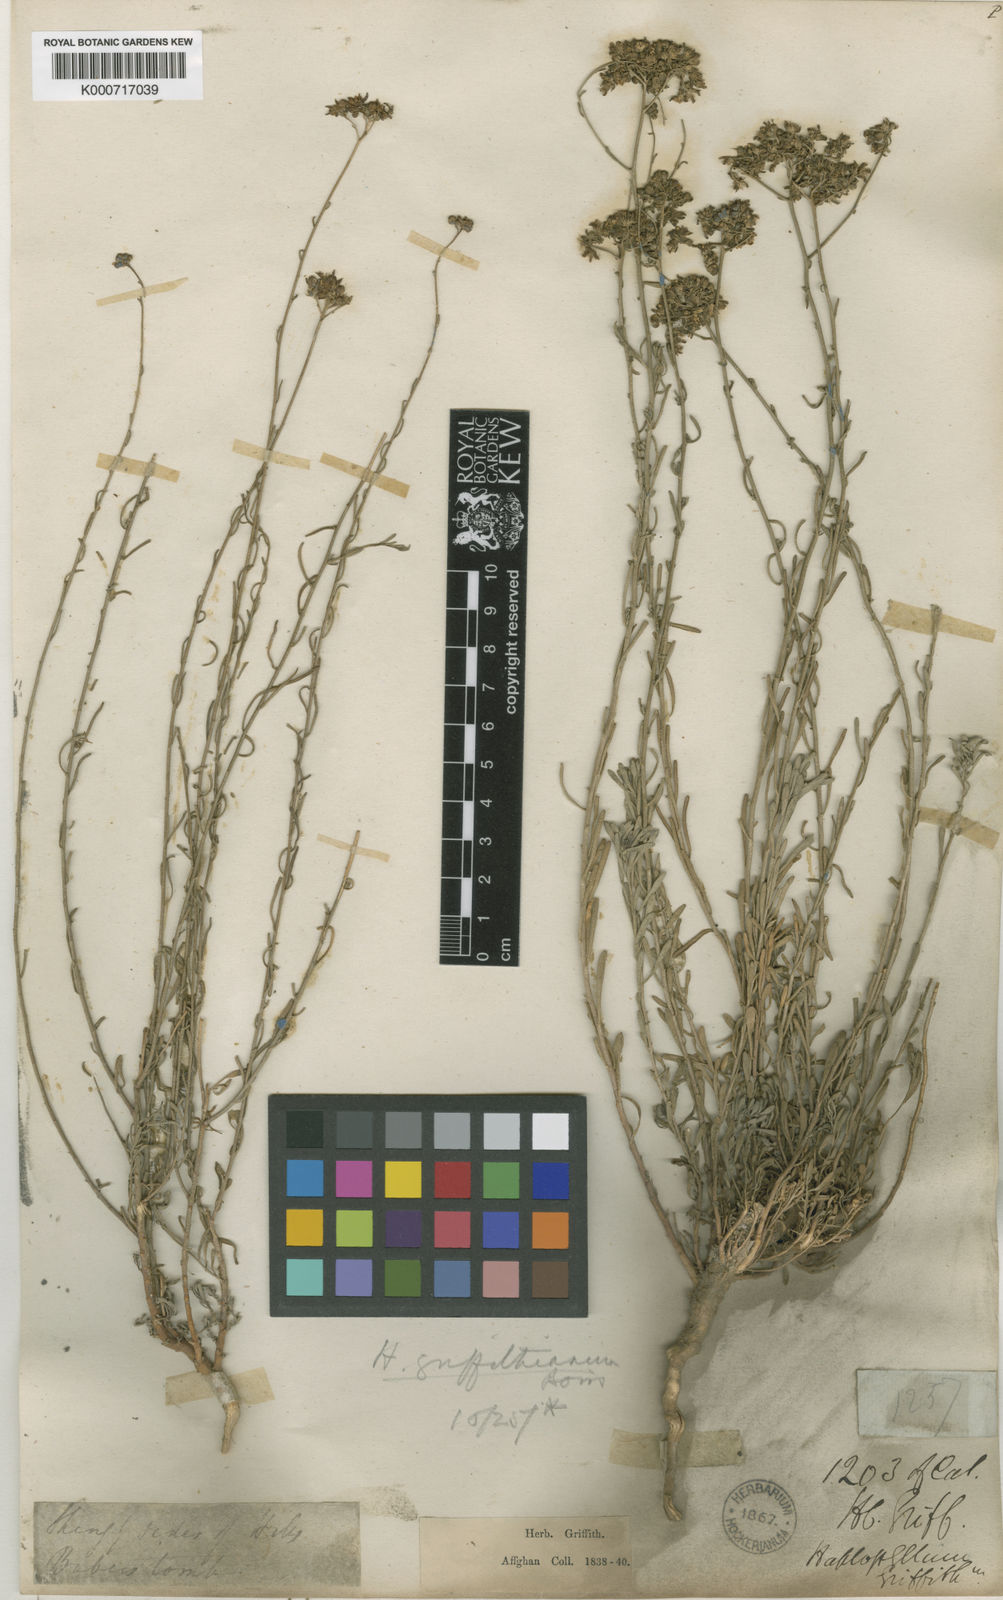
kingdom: Plantae
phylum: Tracheophyta
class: Magnoliopsida
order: Sapindales
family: Rutaceae
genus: Haplophyllum
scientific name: Haplophyllum griffithianum
